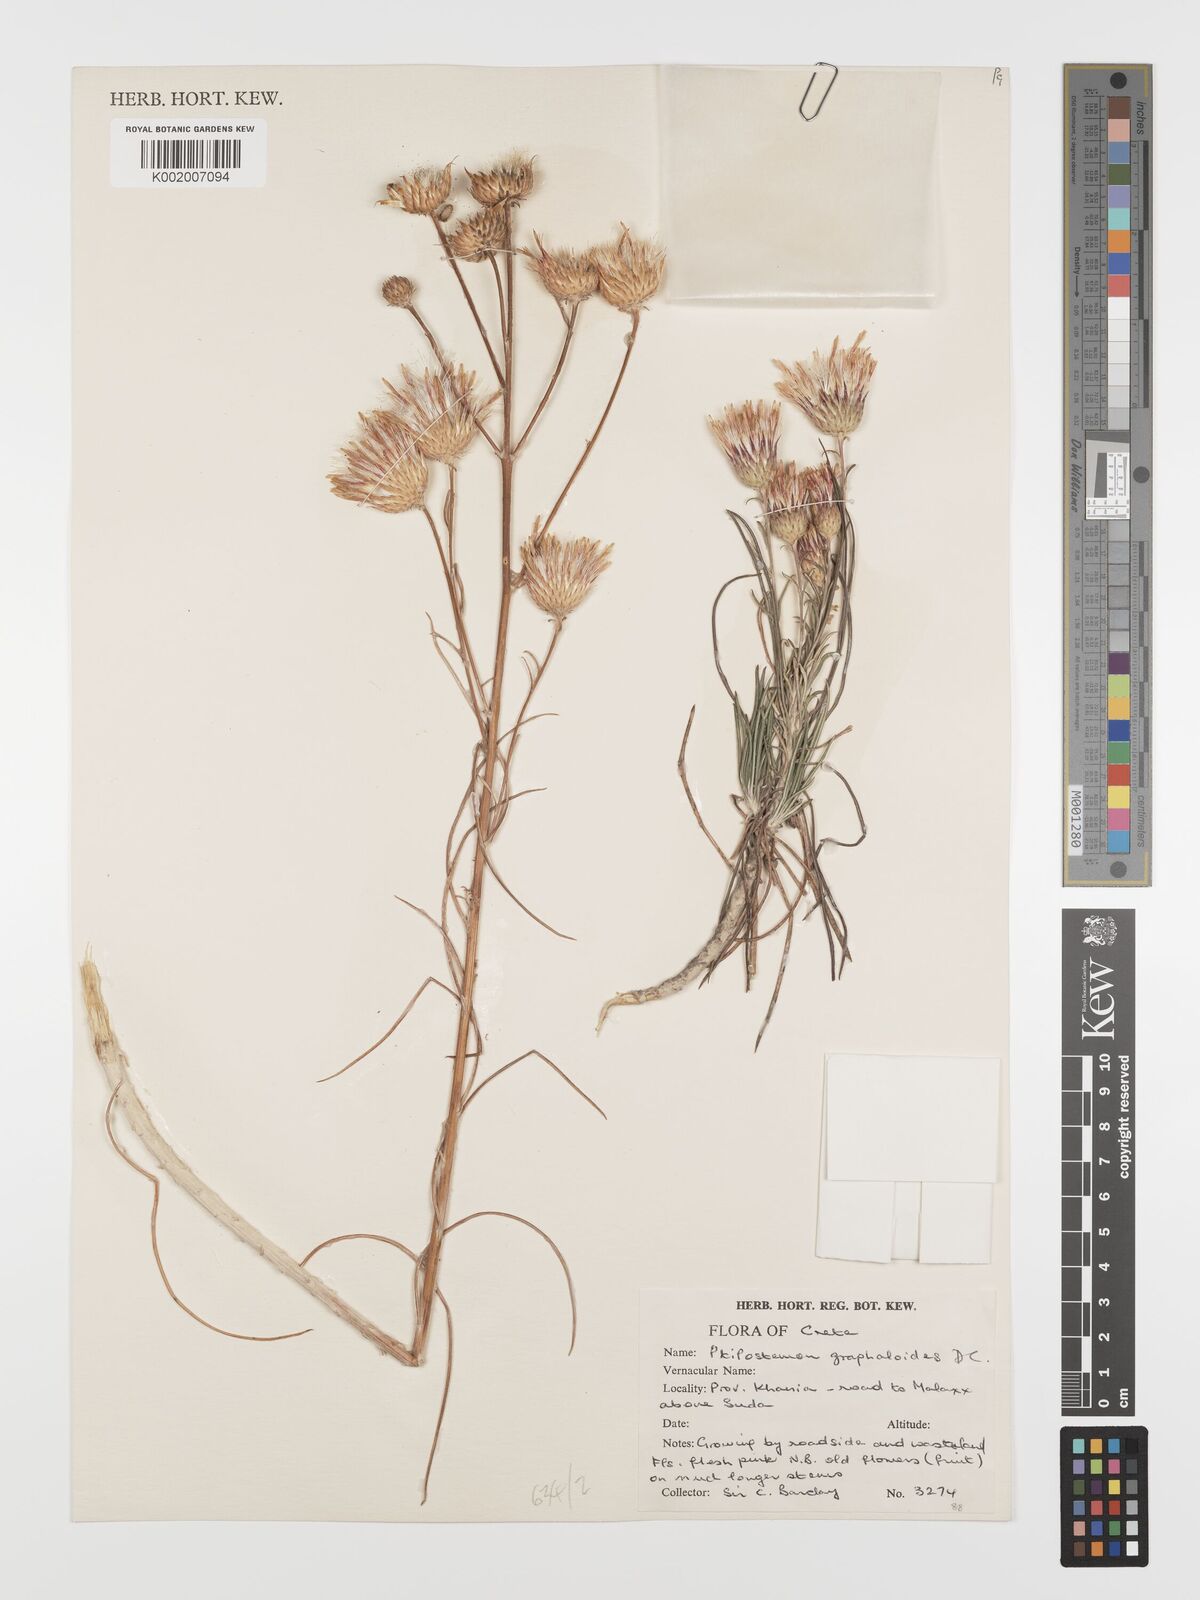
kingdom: Plantae
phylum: Tracheophyta
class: Magnoliopsida
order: Asterales
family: Asteraceae
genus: Ptilostemon
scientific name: Ptilostemon gnaphaloides
